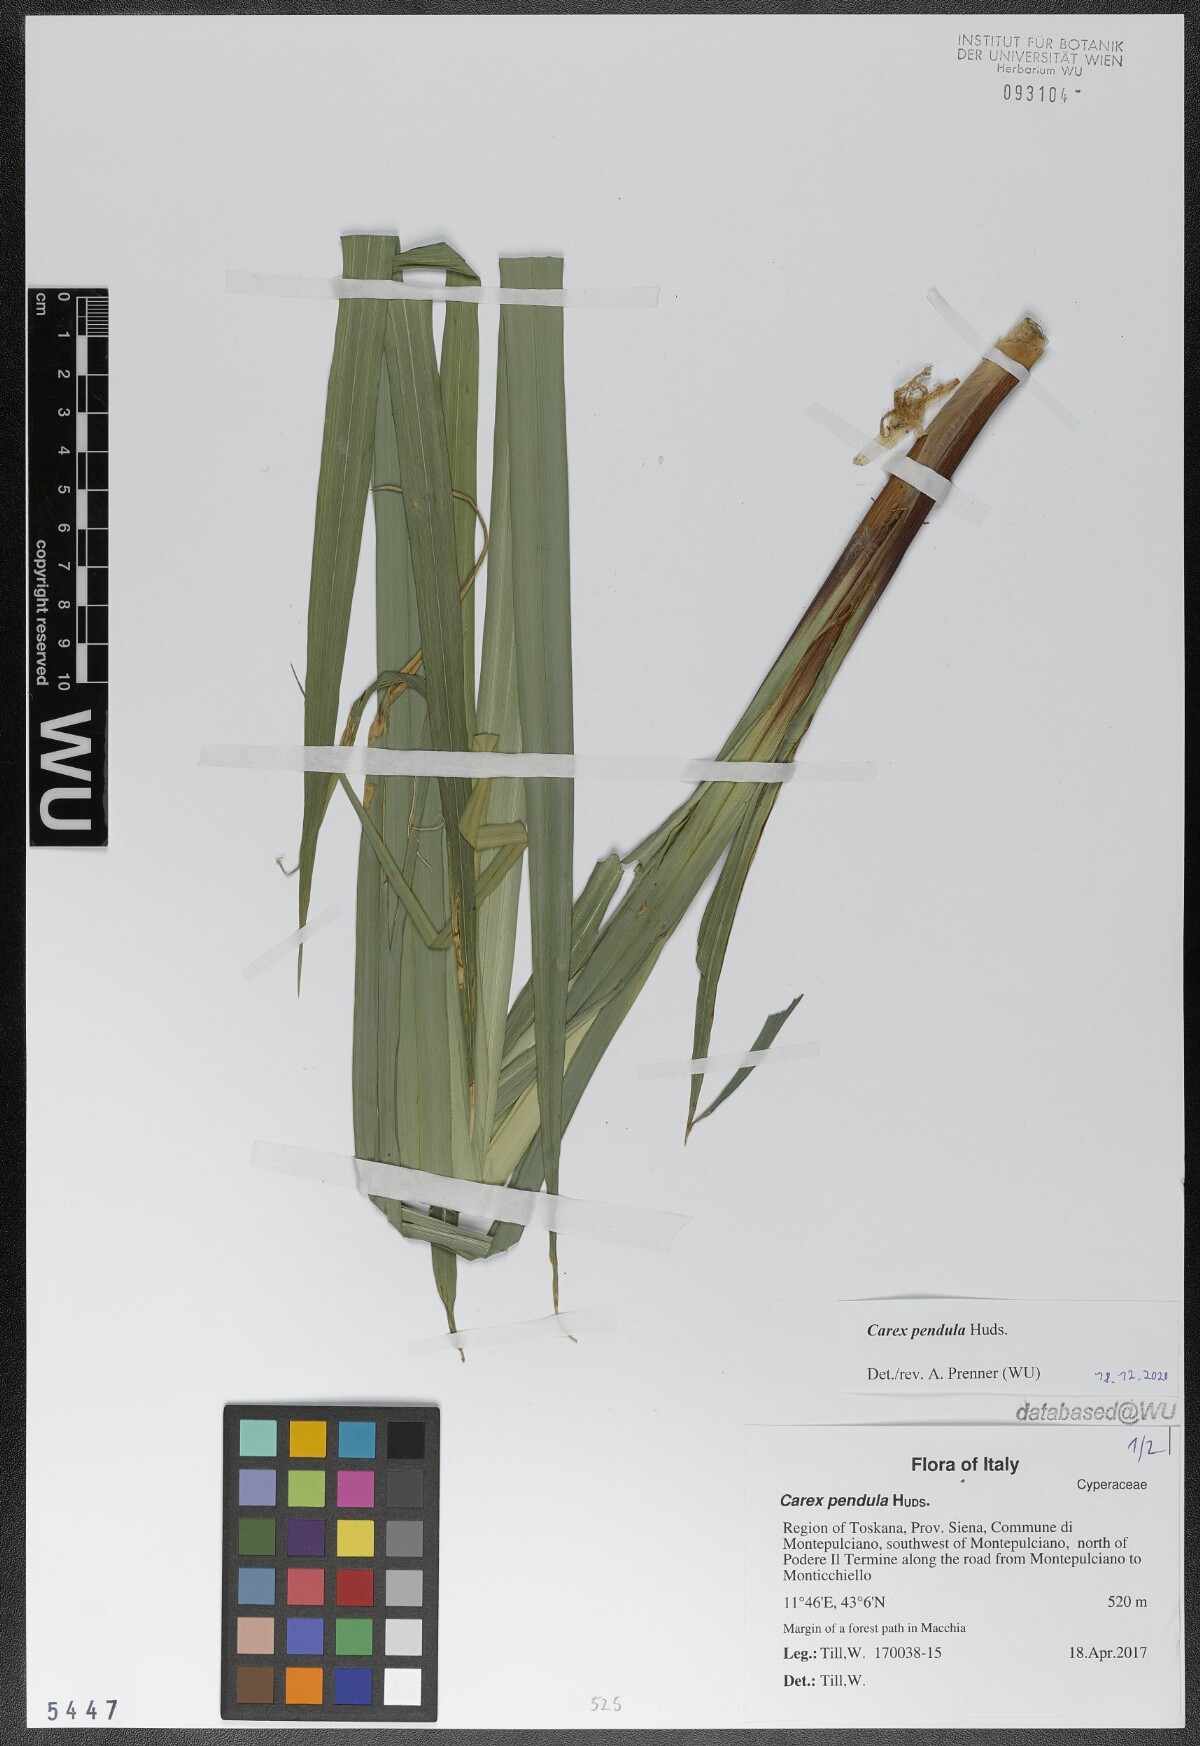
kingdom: Plantae
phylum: Tracheophyta
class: Liliopsida
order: Poales
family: Cyperaceae
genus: Carex
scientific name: Carex pendula
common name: Pendulous sedge
